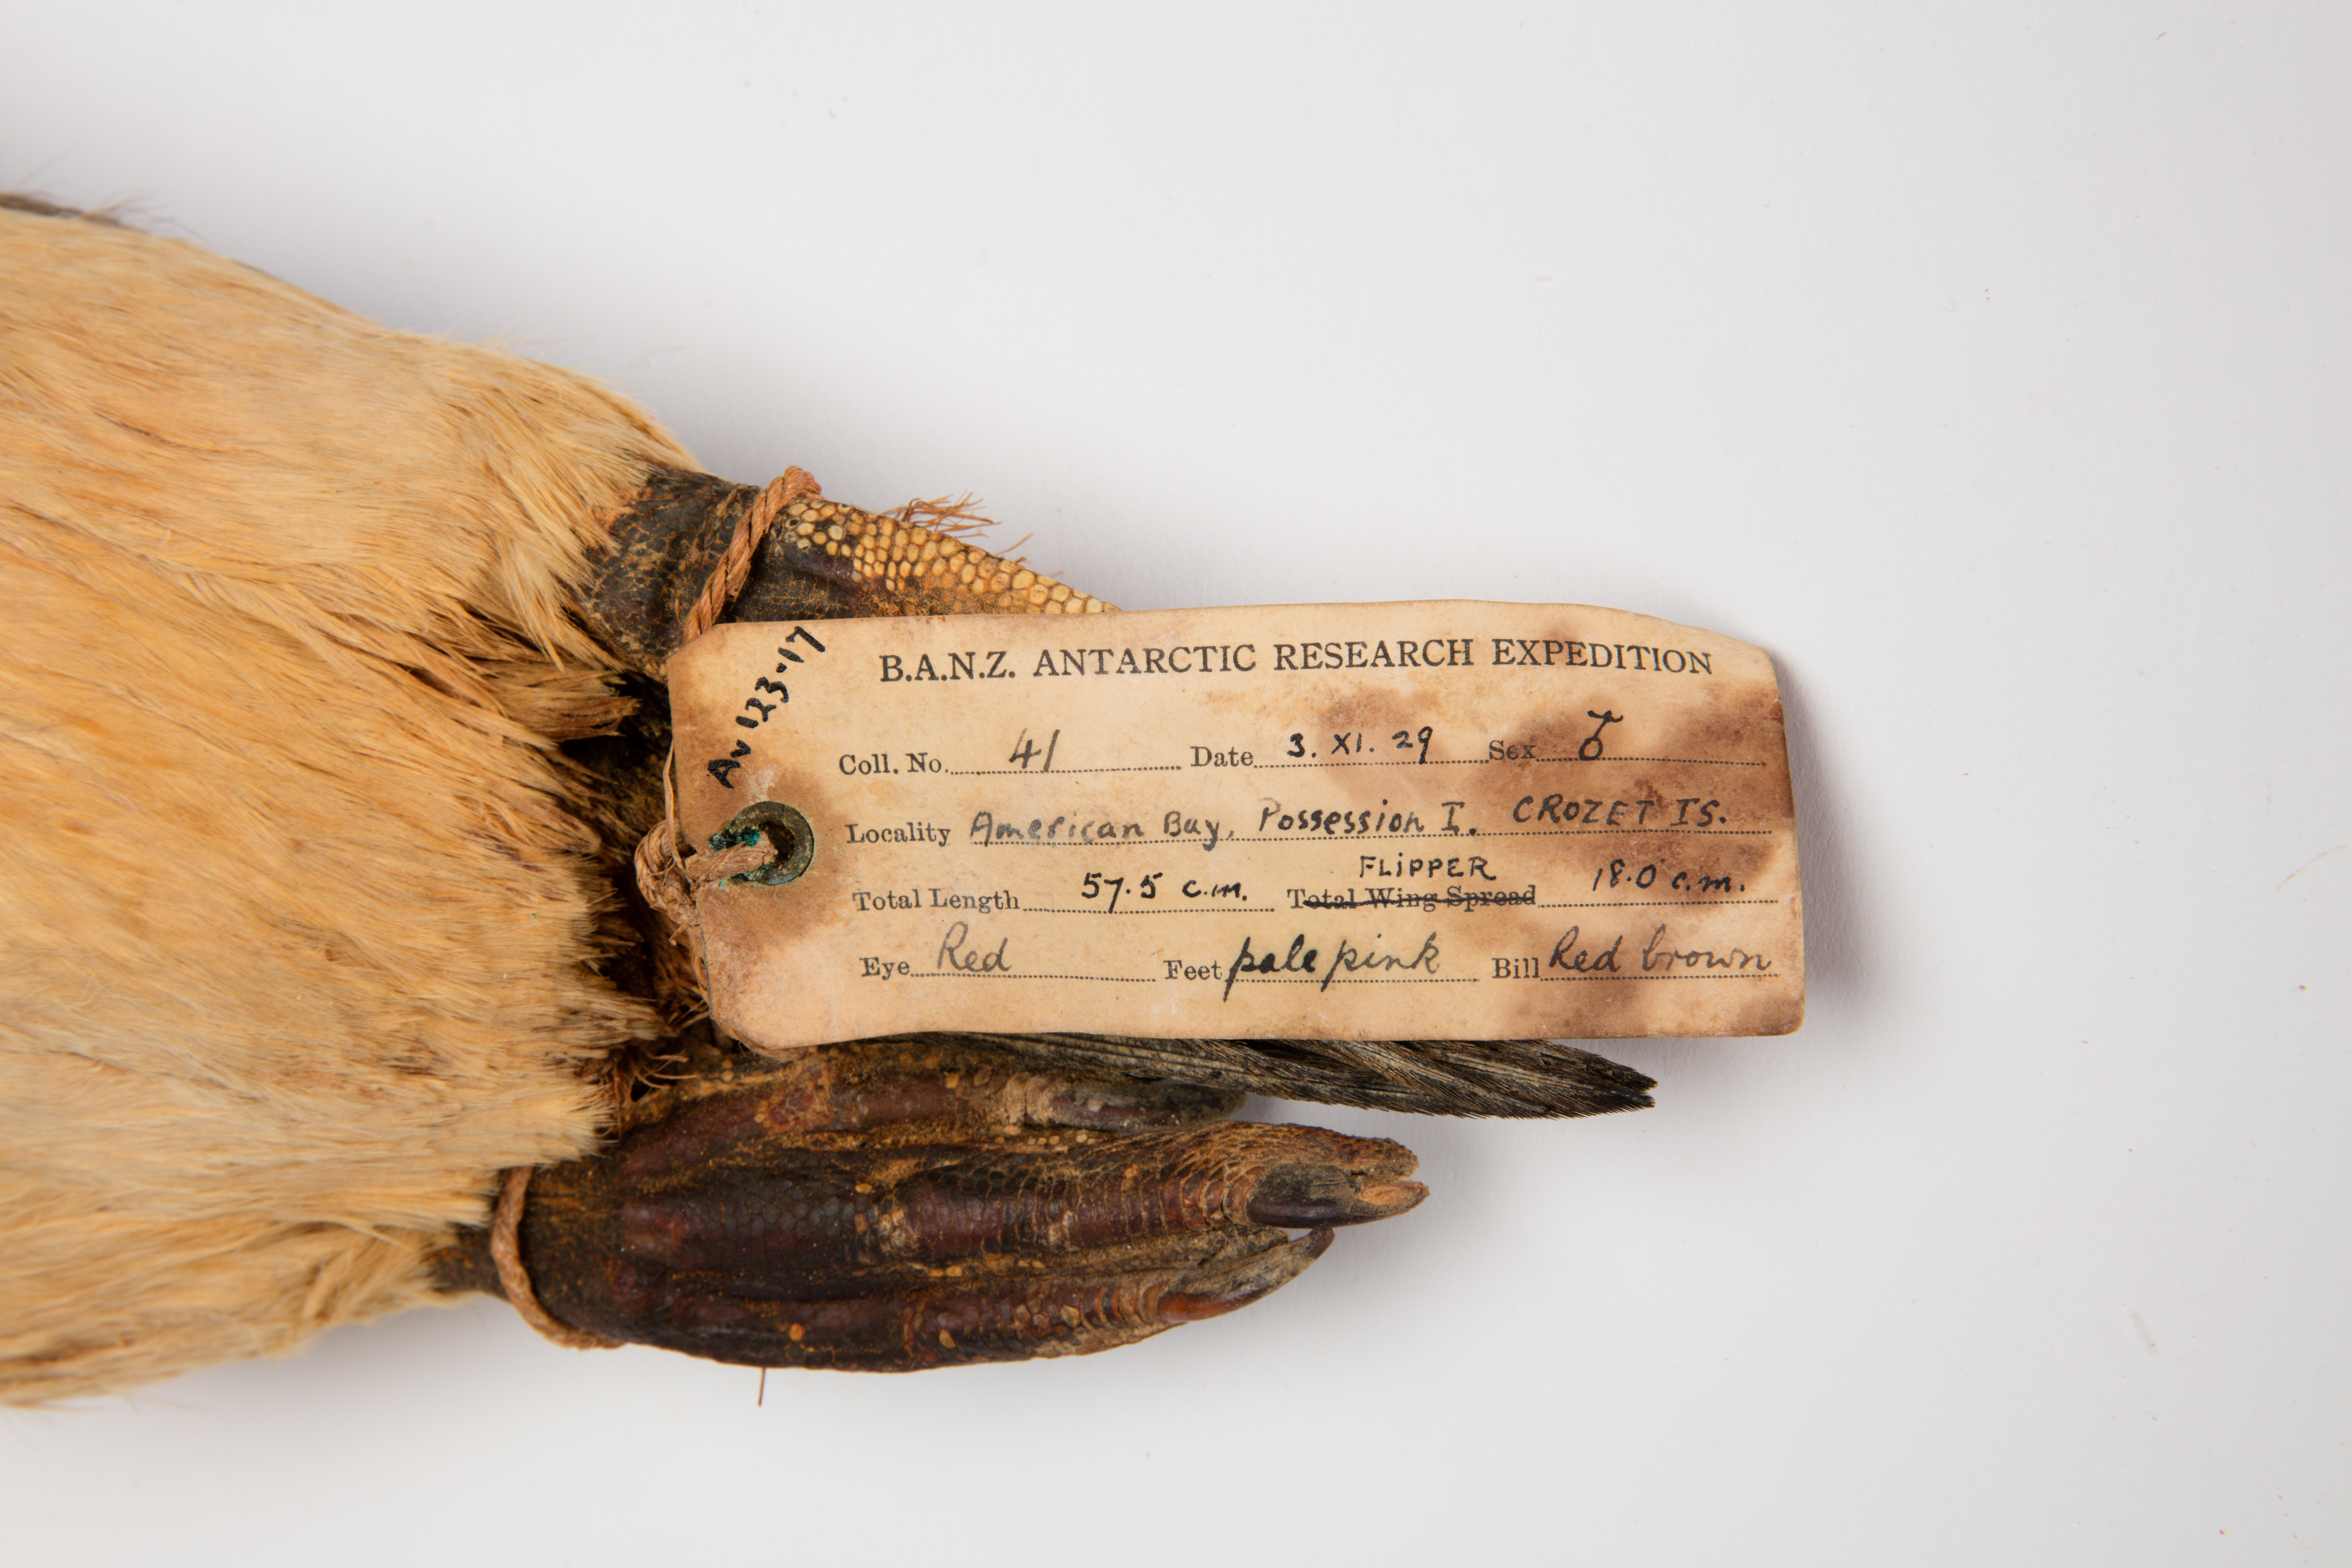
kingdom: Animalia
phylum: Chordata
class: Aves
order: Sphenisciformes
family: Spheniscidae
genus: Eudyptes
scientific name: Eudyptes chrysocome
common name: Southern rockhopper penguin
